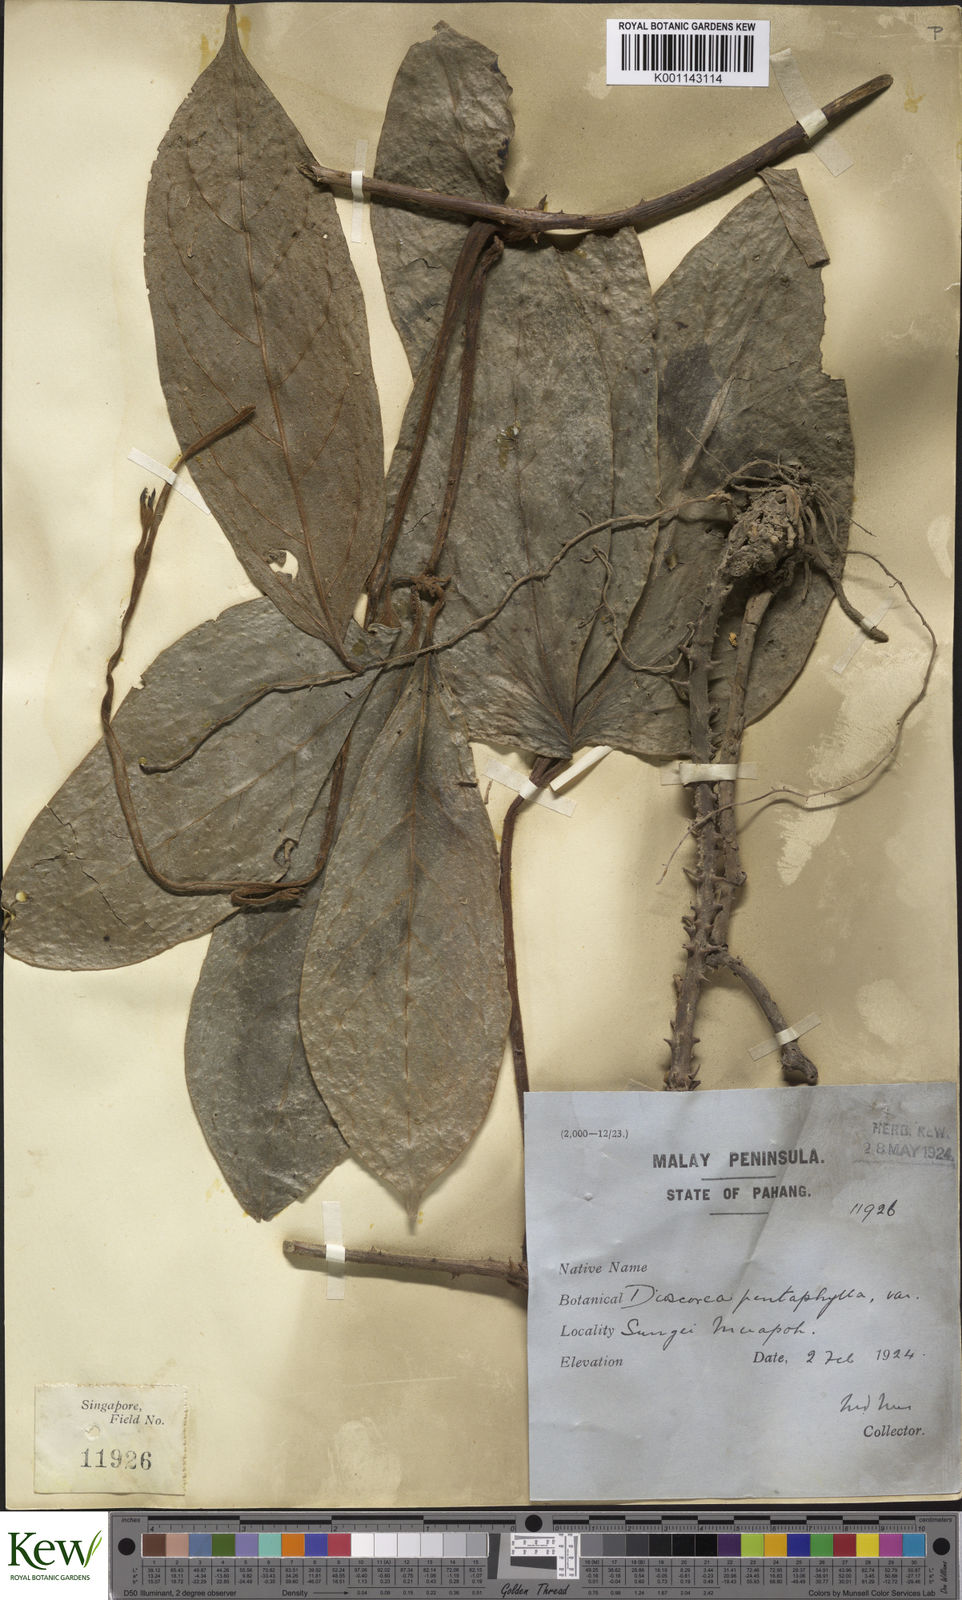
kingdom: Plantae
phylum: Tracheophyta
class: Liliopsida
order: Dioscoreales
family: Dioscoreaceae
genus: Dioscorea
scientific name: Dioscorea pentaphylla
